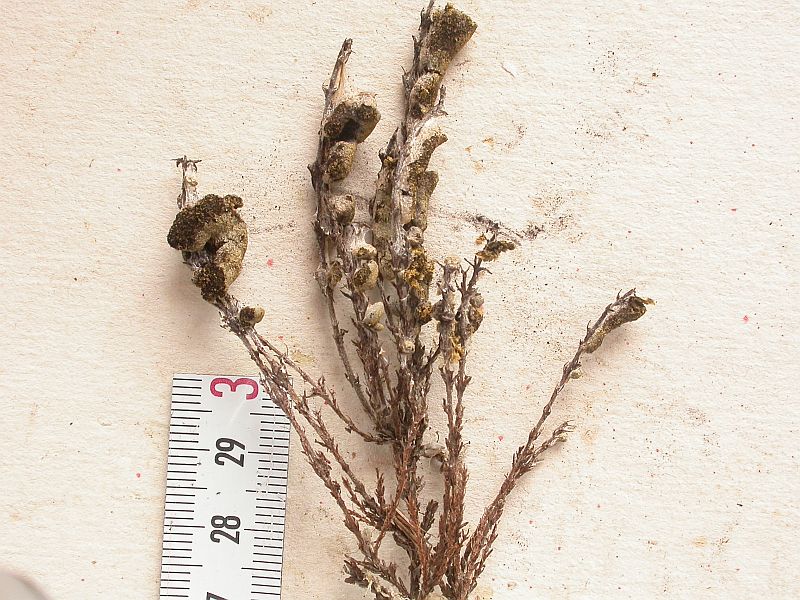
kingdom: Protozoa
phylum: Mycetozoa
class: Myxomycetes
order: Physarales
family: Physaraceae
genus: Fuligo
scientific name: Fuligo muscorum
